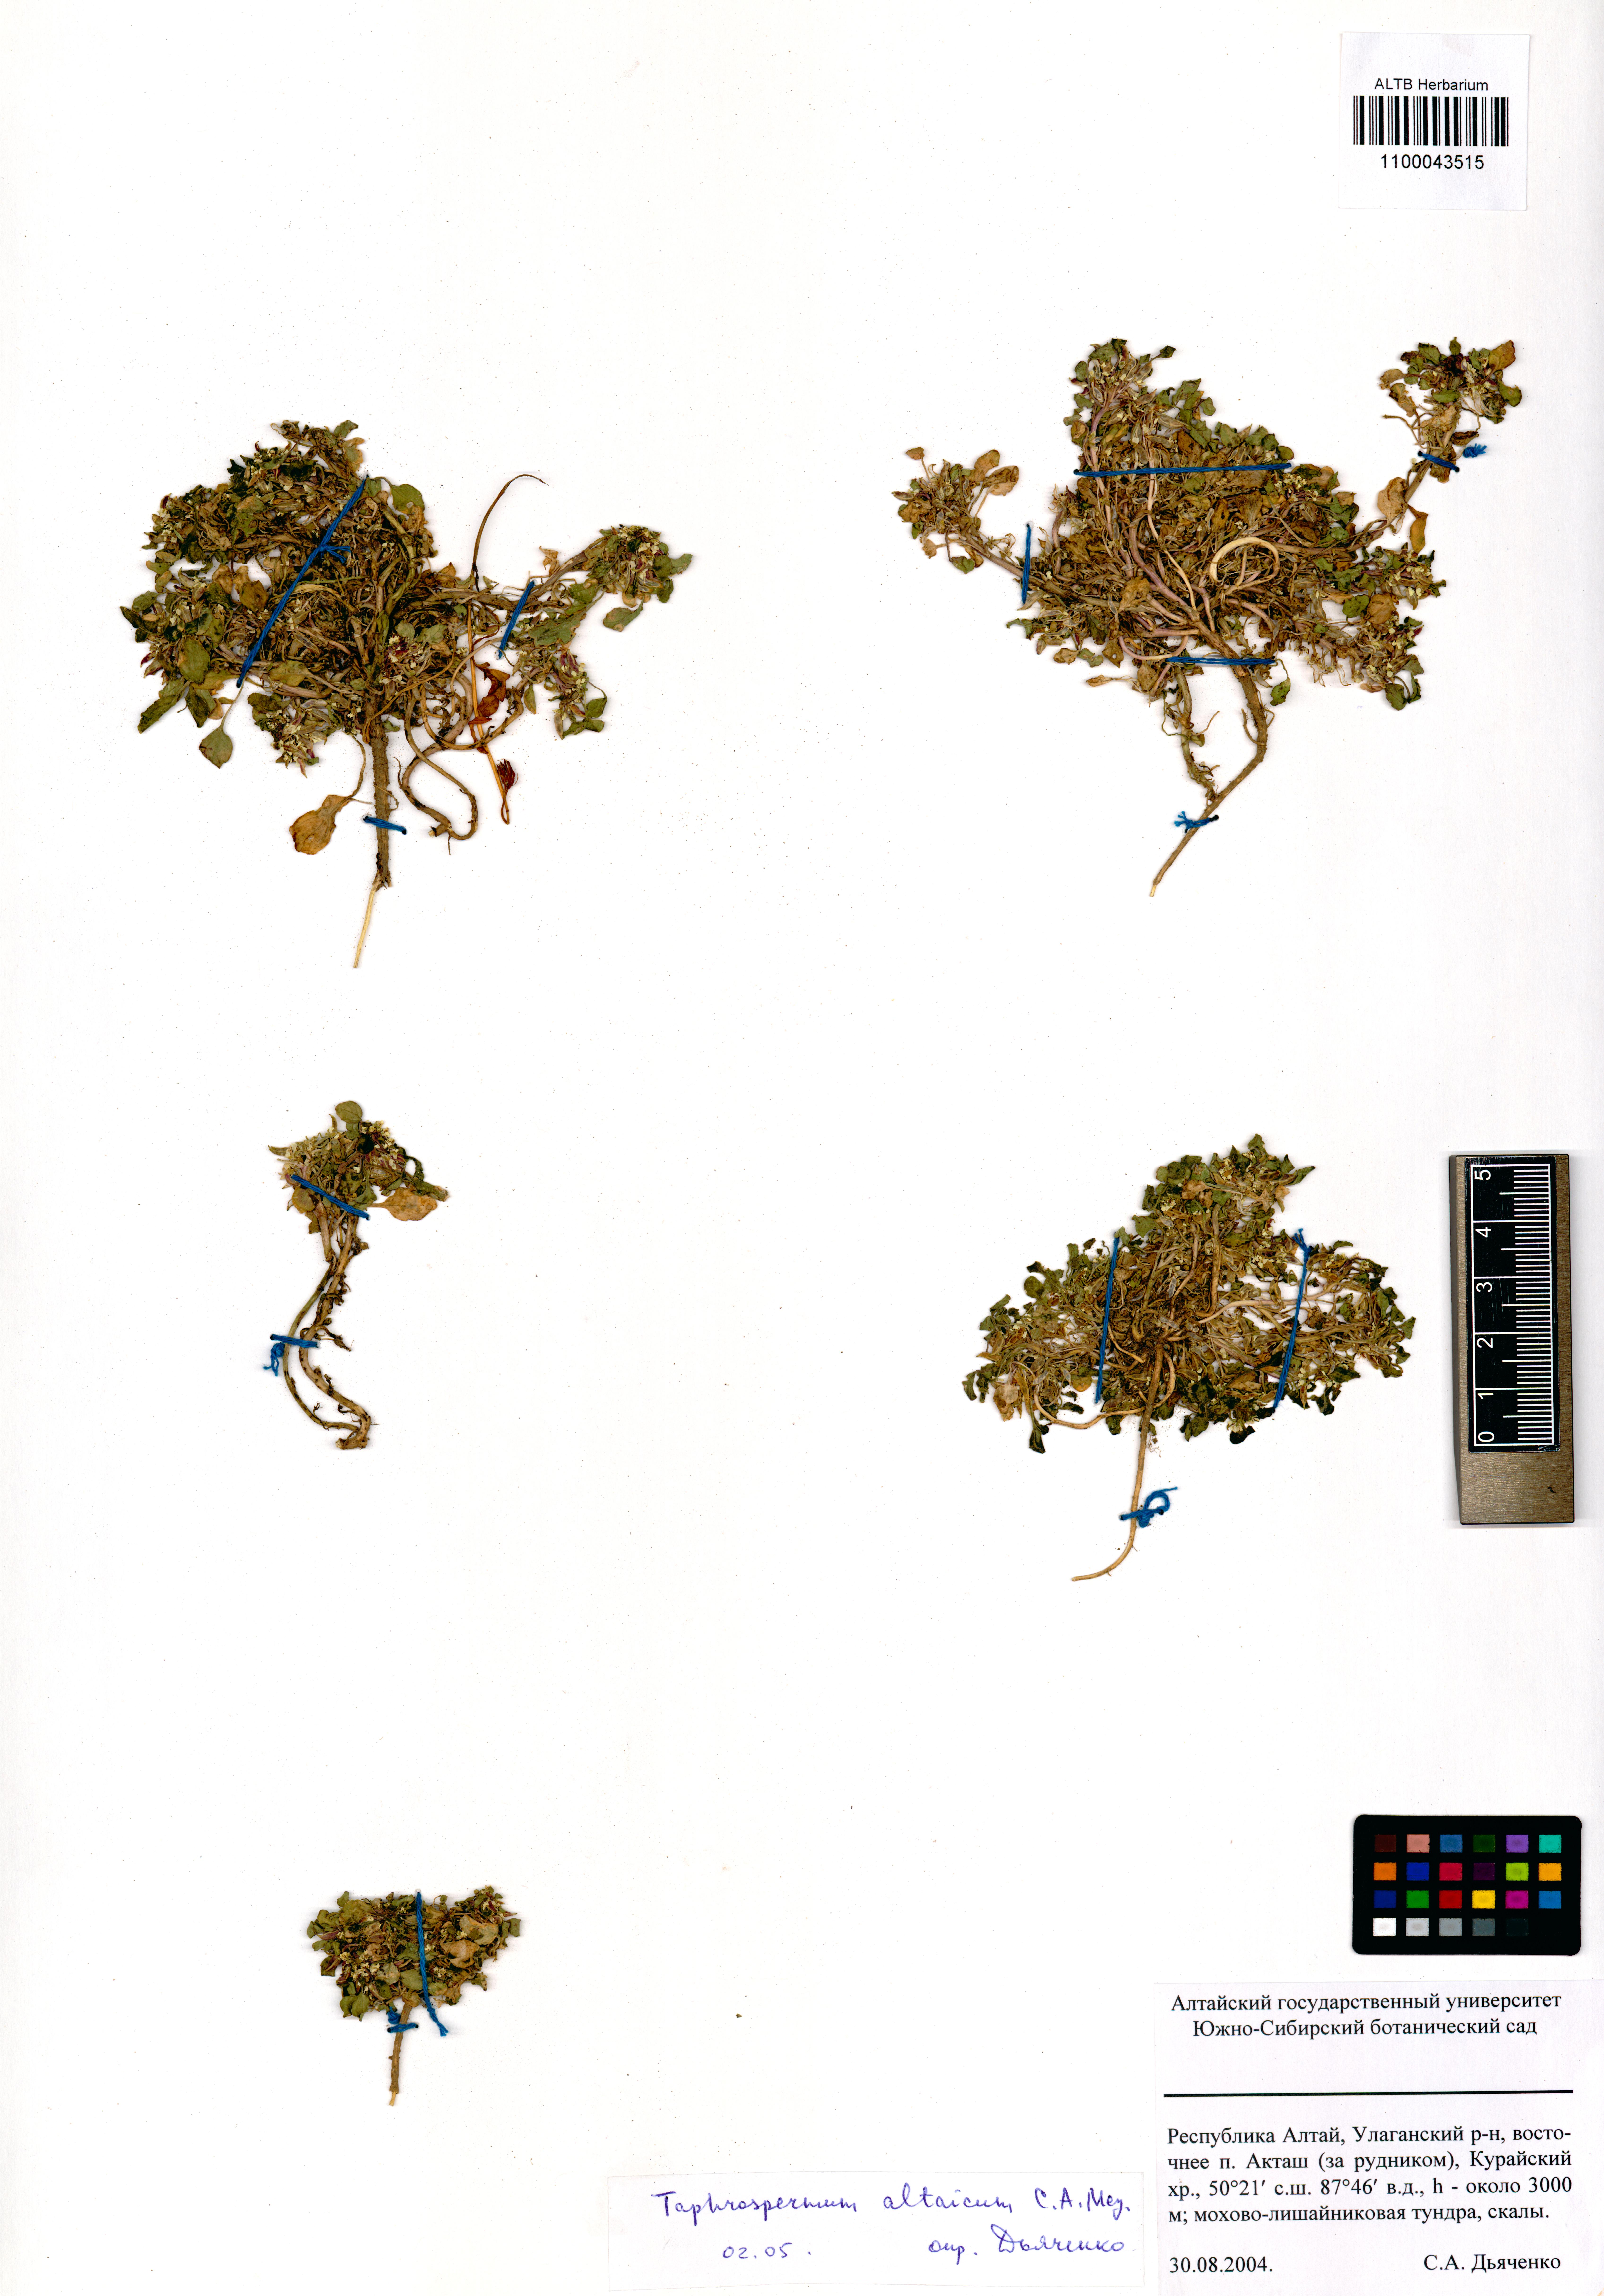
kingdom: Plantae
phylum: Tracheophyta
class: Magnoliopsida
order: Brassicales
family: Brassicaceae
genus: Eutrema
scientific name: Eutrema altaicum
